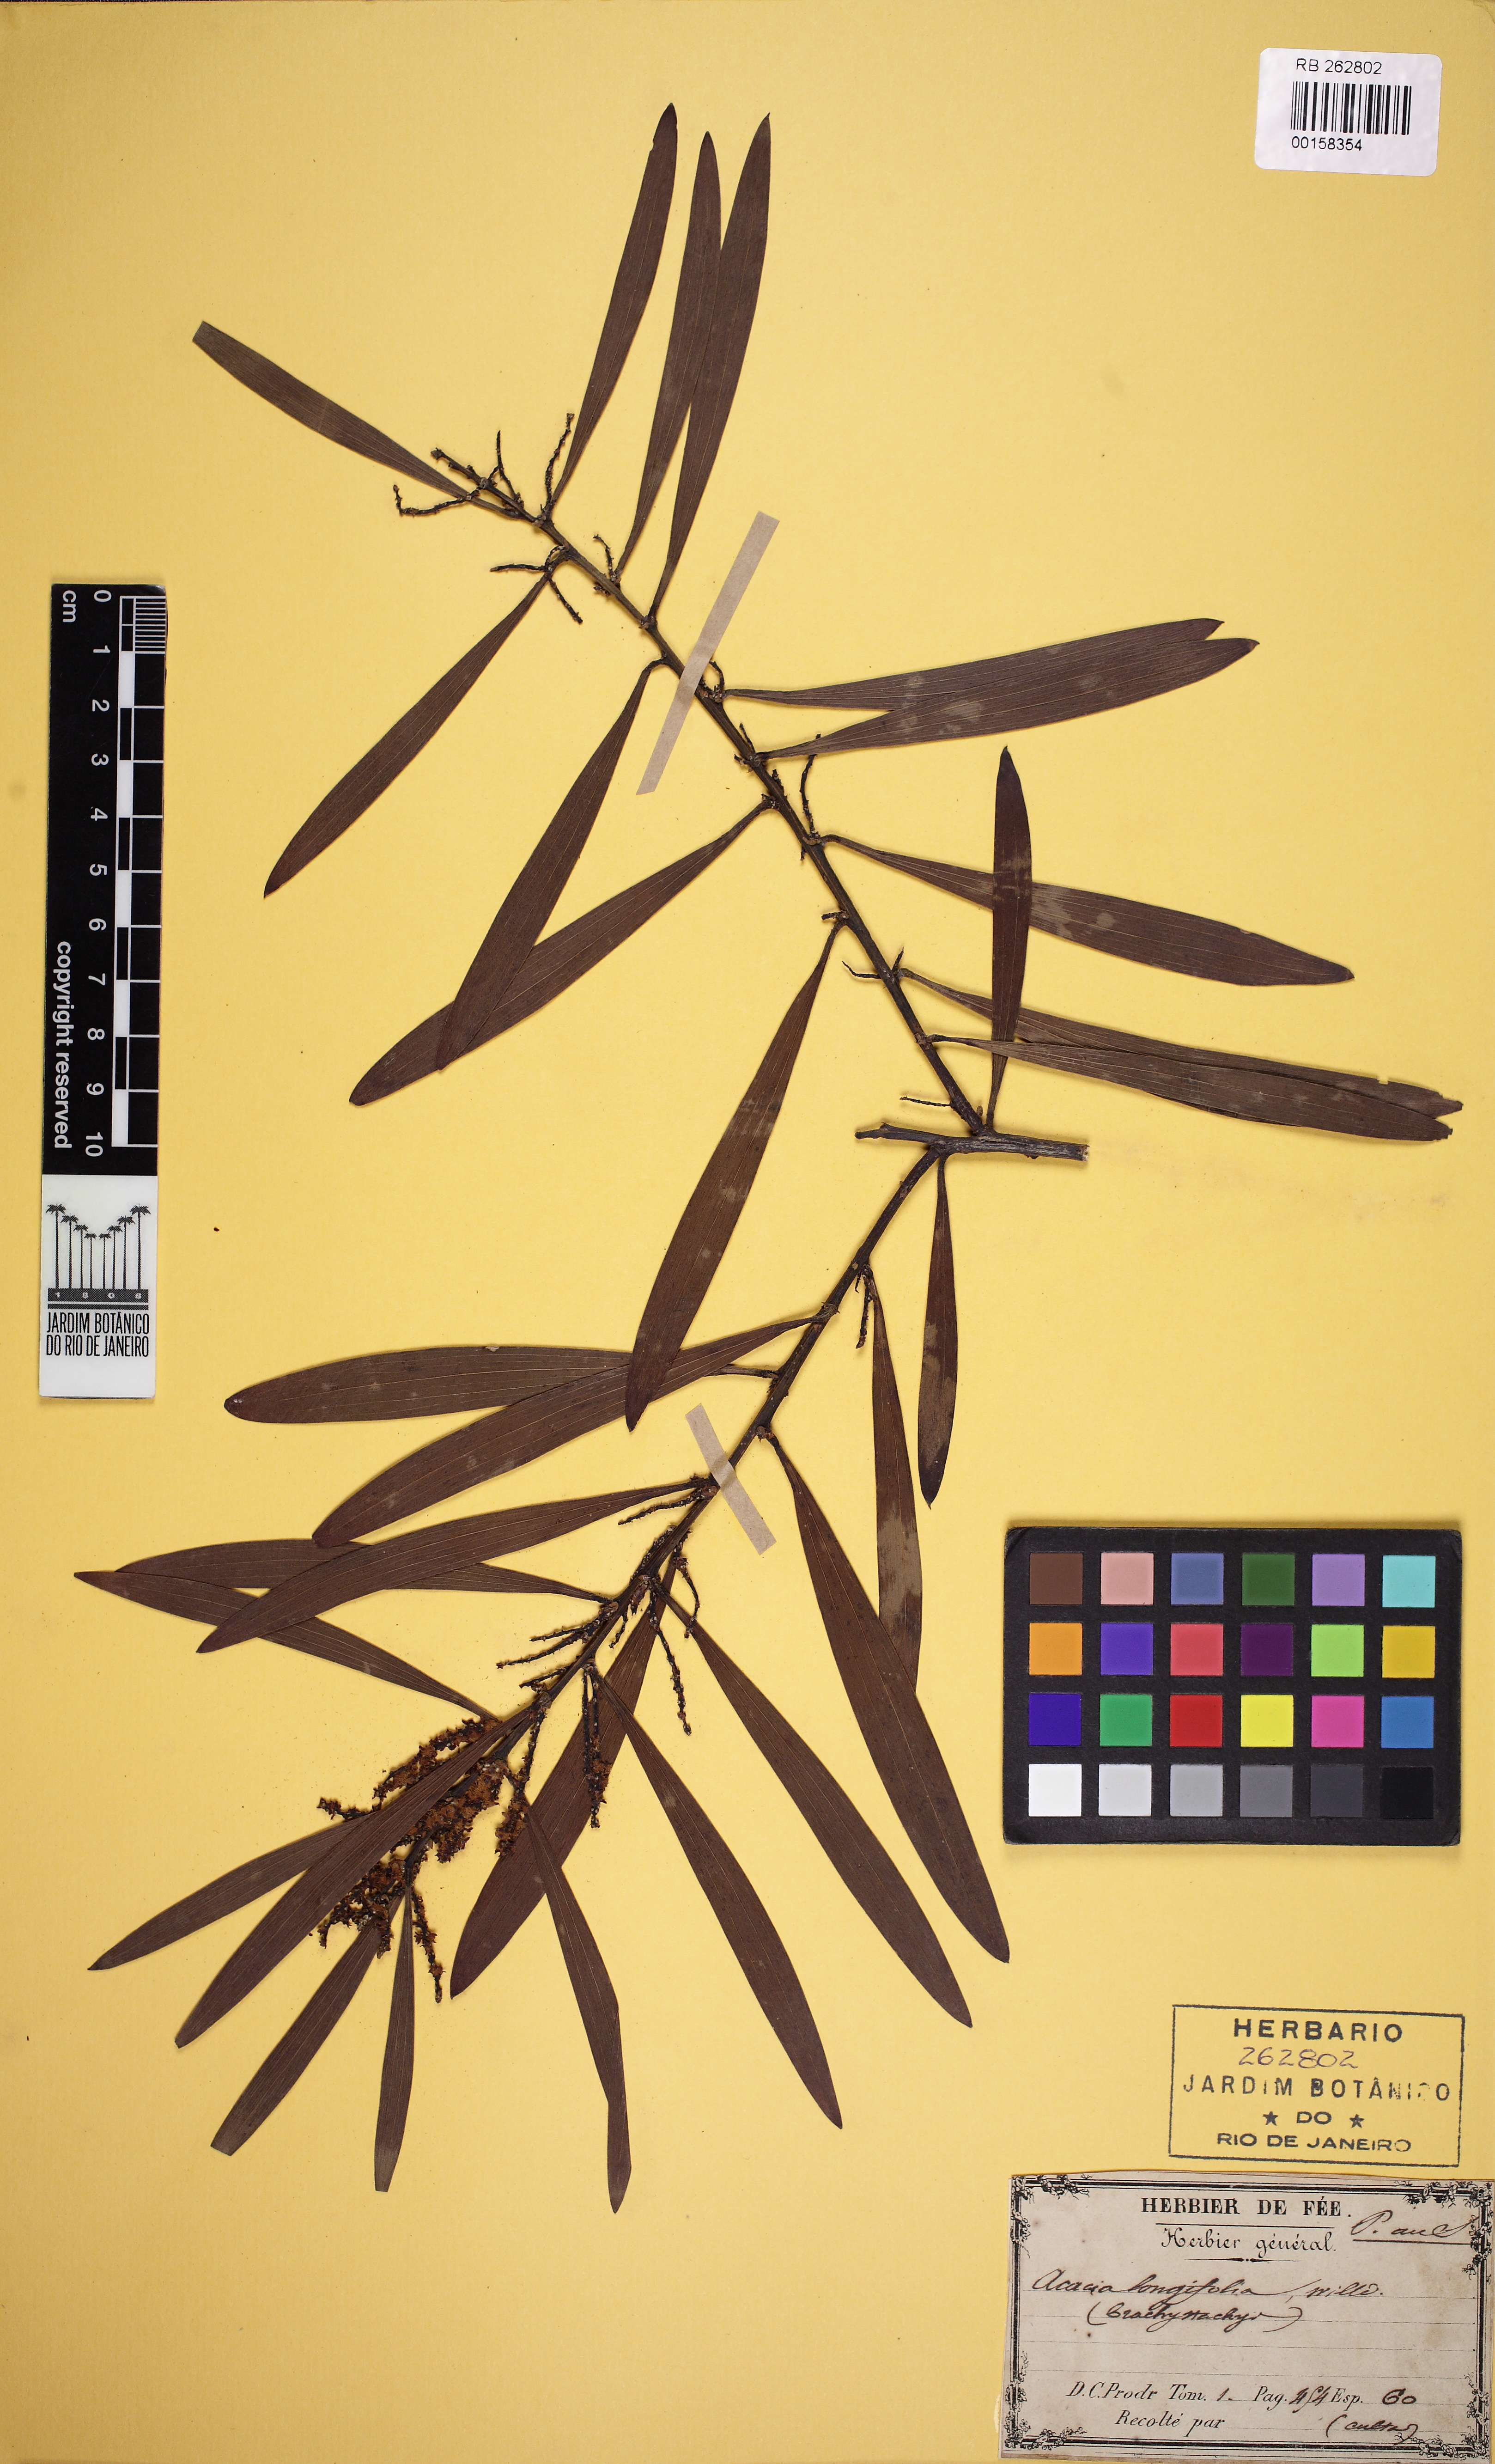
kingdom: Plantae
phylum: Tracheophyta
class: Magnoliopsida
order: Fabales
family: Fabaceae
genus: Acacia
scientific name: Acacia longifolia
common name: Sydney golden wattle
